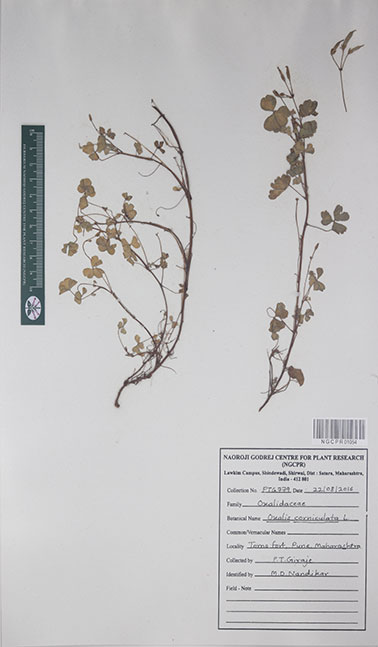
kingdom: Plantae
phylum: Tracheophyta
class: Magnoliopsida
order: Oxalidales
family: Oxalidaceae
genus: Oxalis
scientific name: Oxalis corniculata
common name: Procumbent yellow-sorrel
